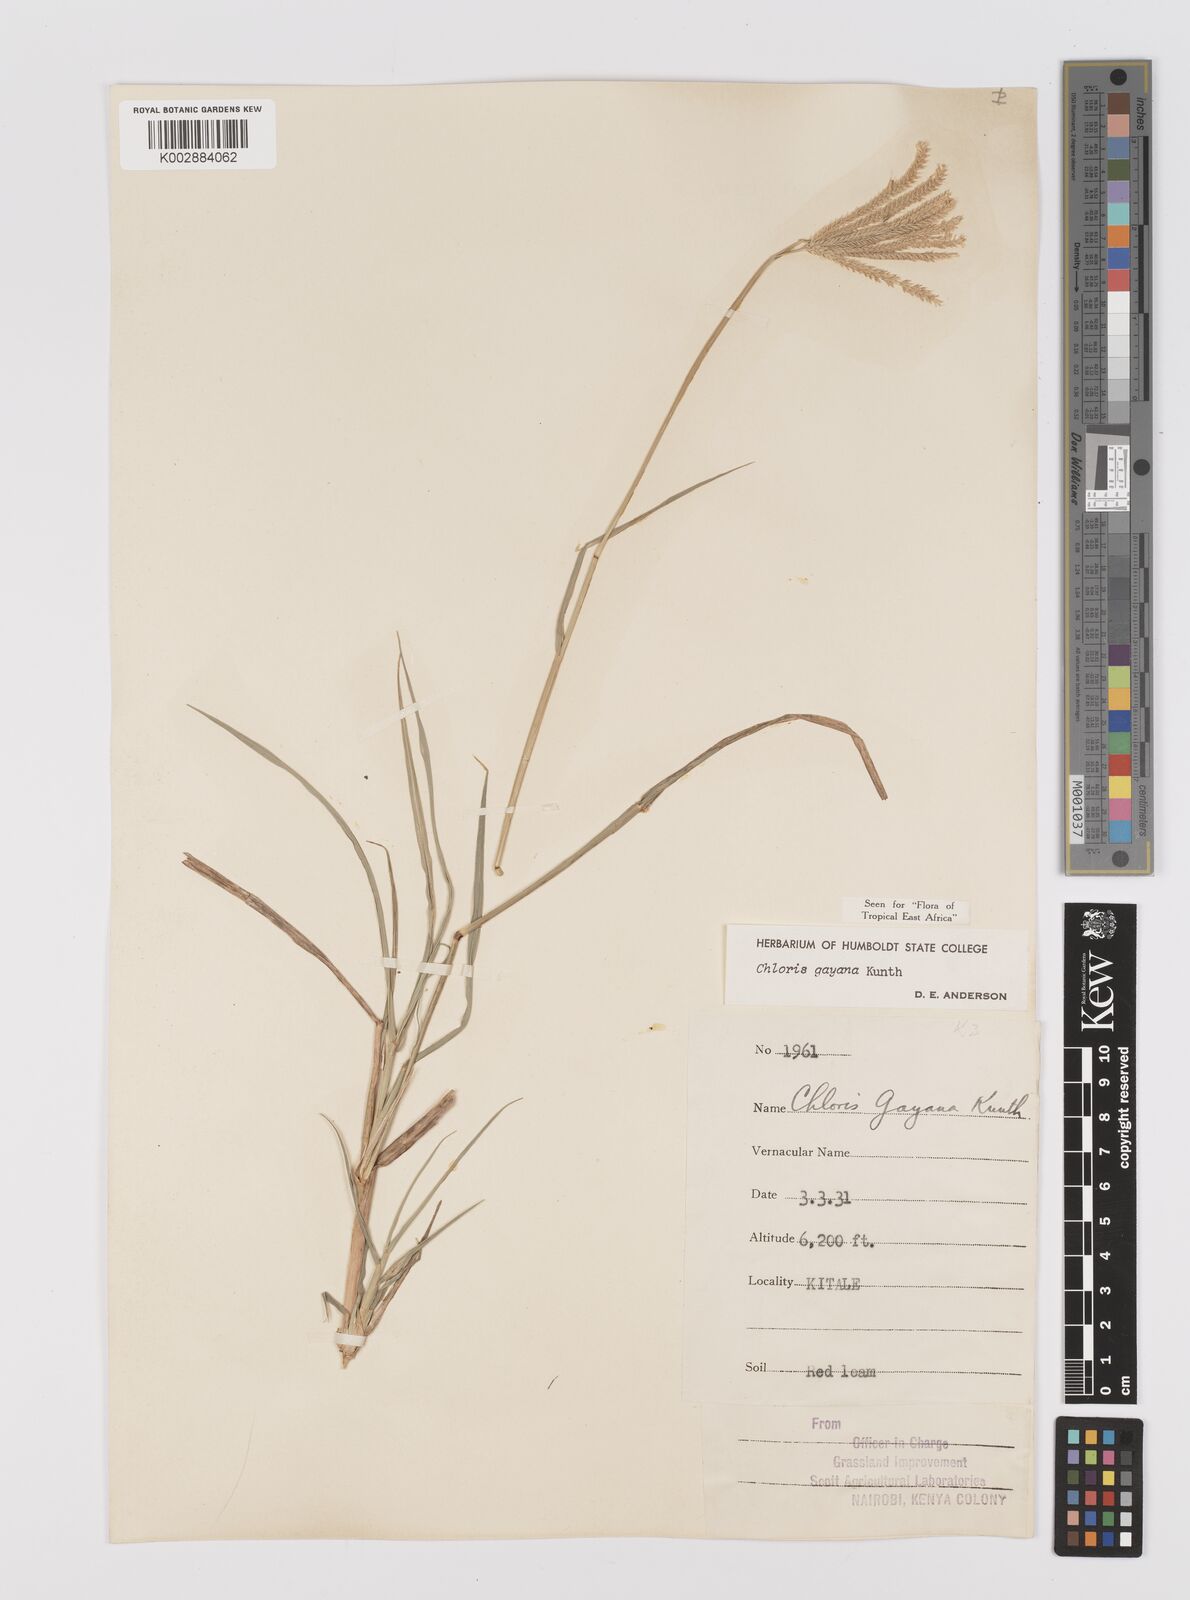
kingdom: Plantae
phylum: Tracheophyta
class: Liliopsida
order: Poales
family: Poaceae
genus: Chloris
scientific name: Chloris gayana
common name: Rhodes grass
